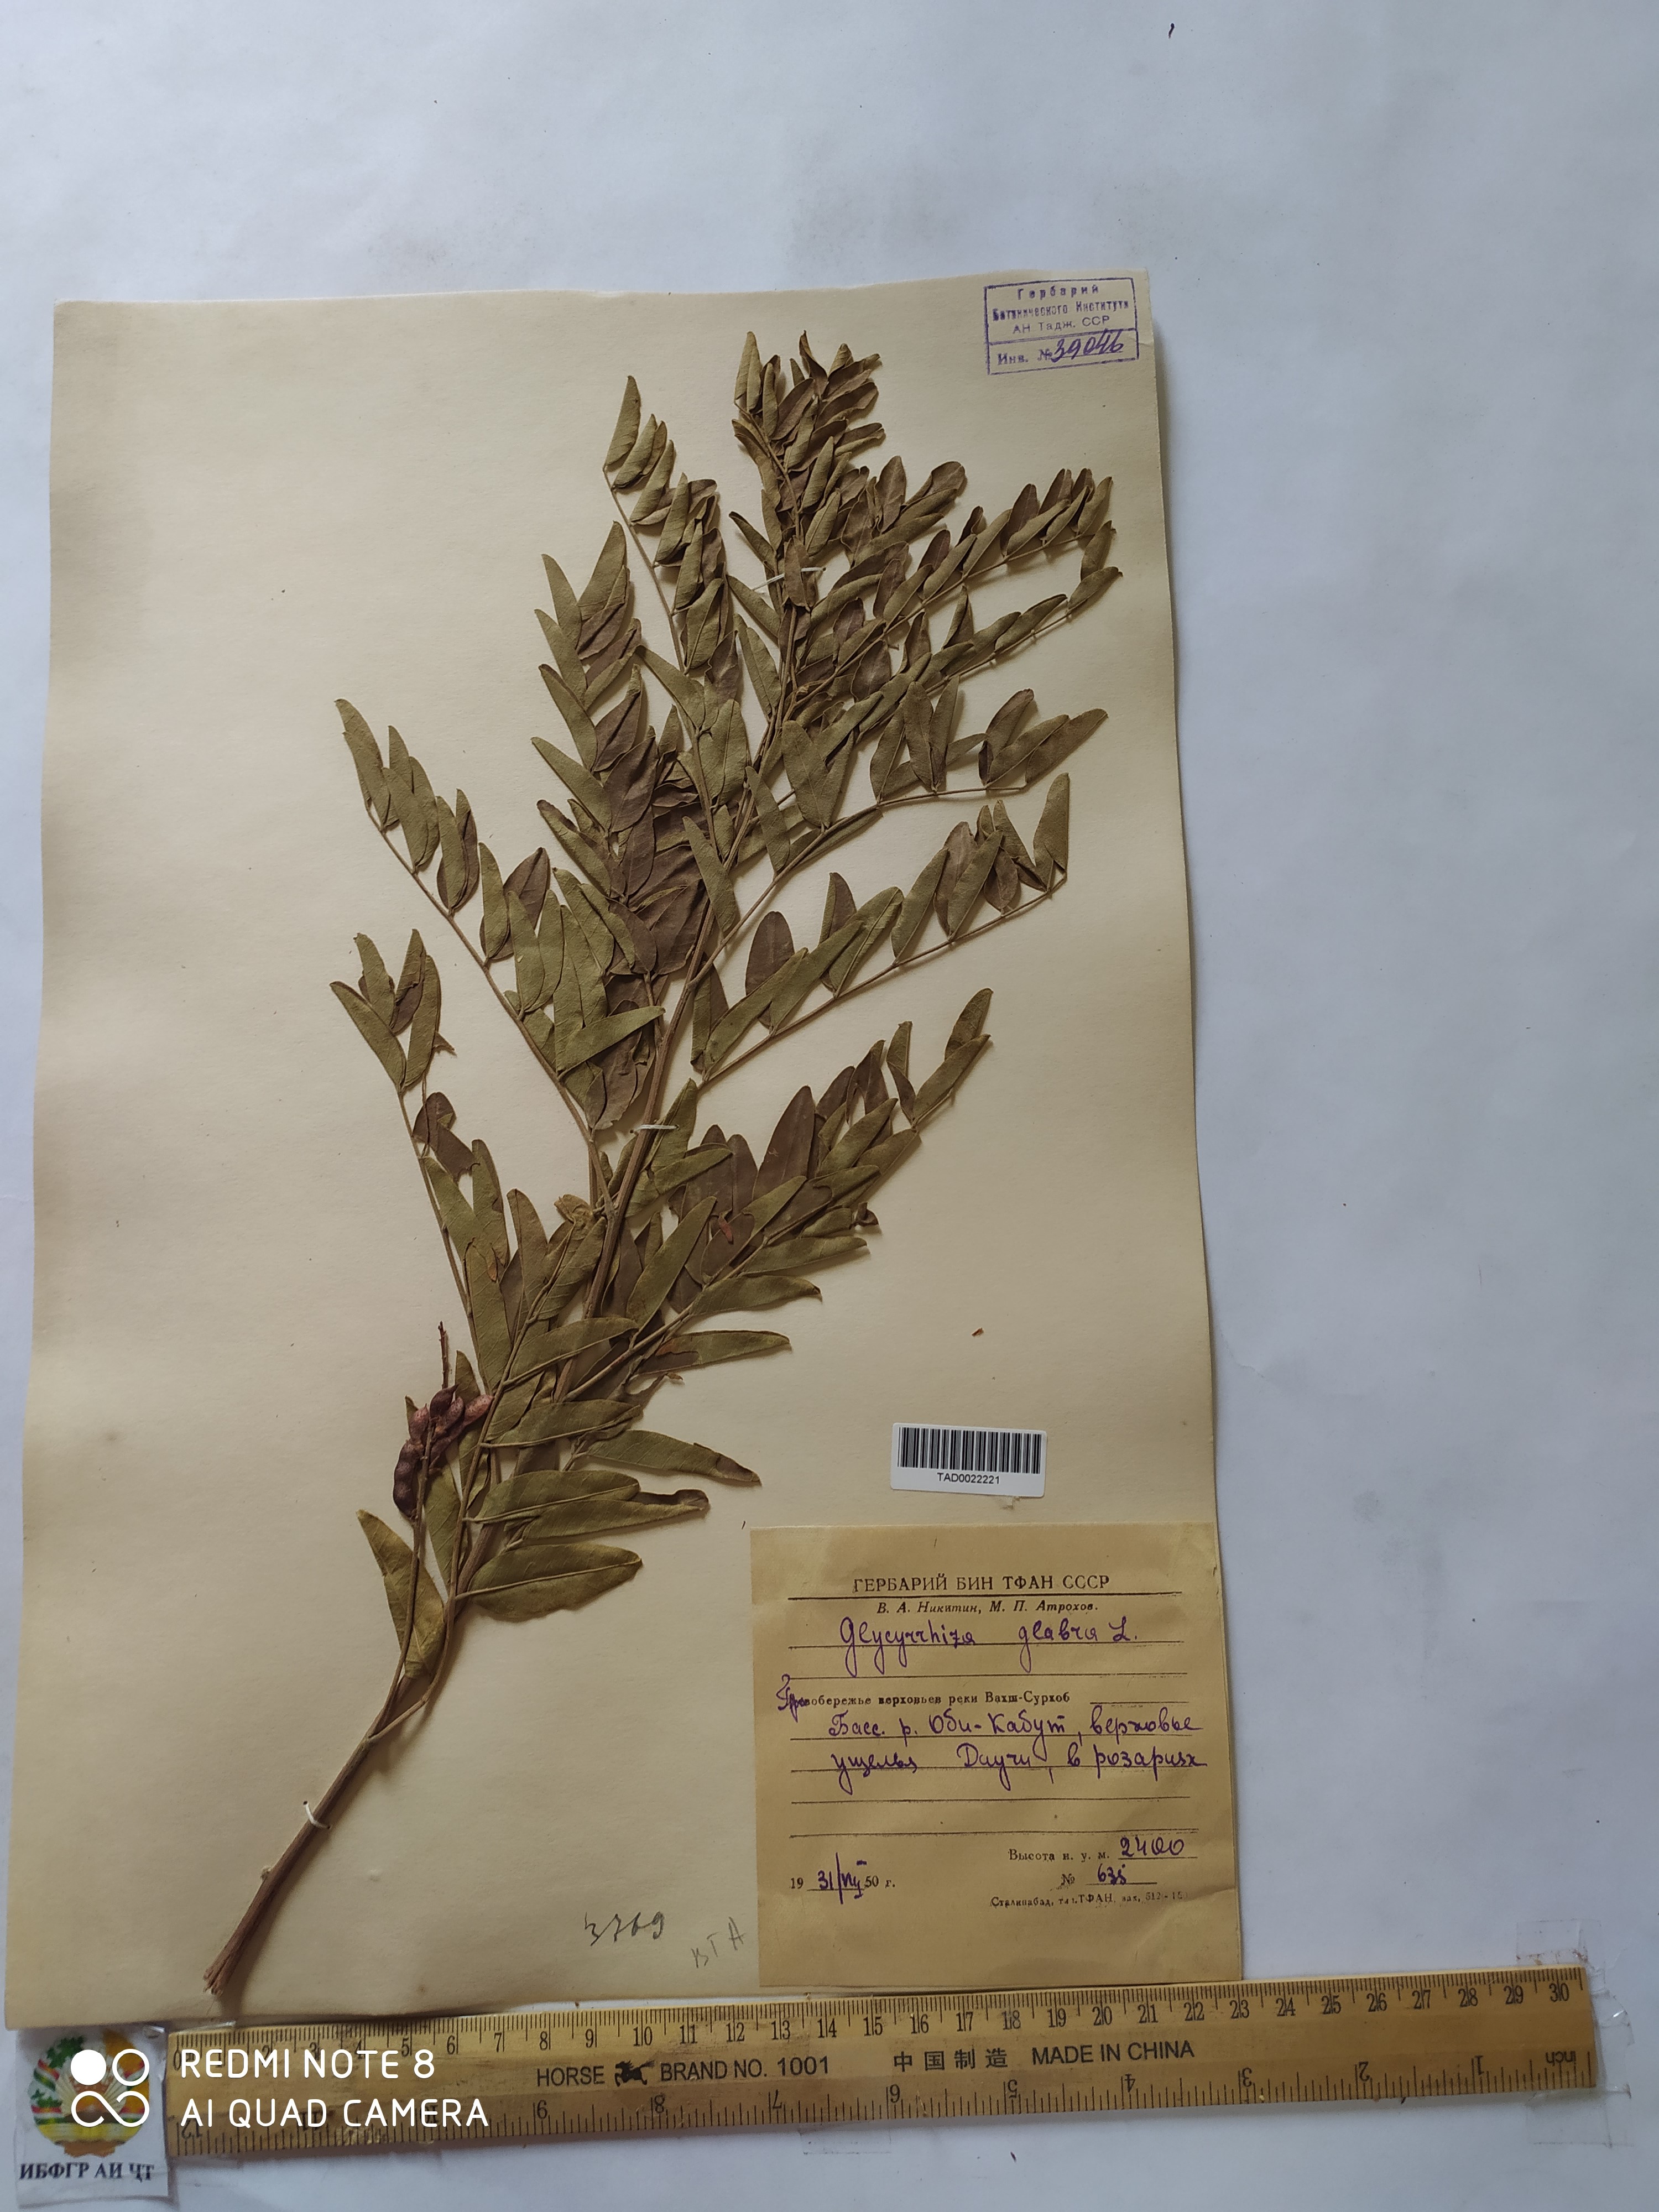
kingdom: Plantae
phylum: Tracheophyta
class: Magnoliopsida
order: Fabales
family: Fabaceae
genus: Glycyrrhiza
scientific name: Glycyrrhiza glabra
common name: Liquorice
